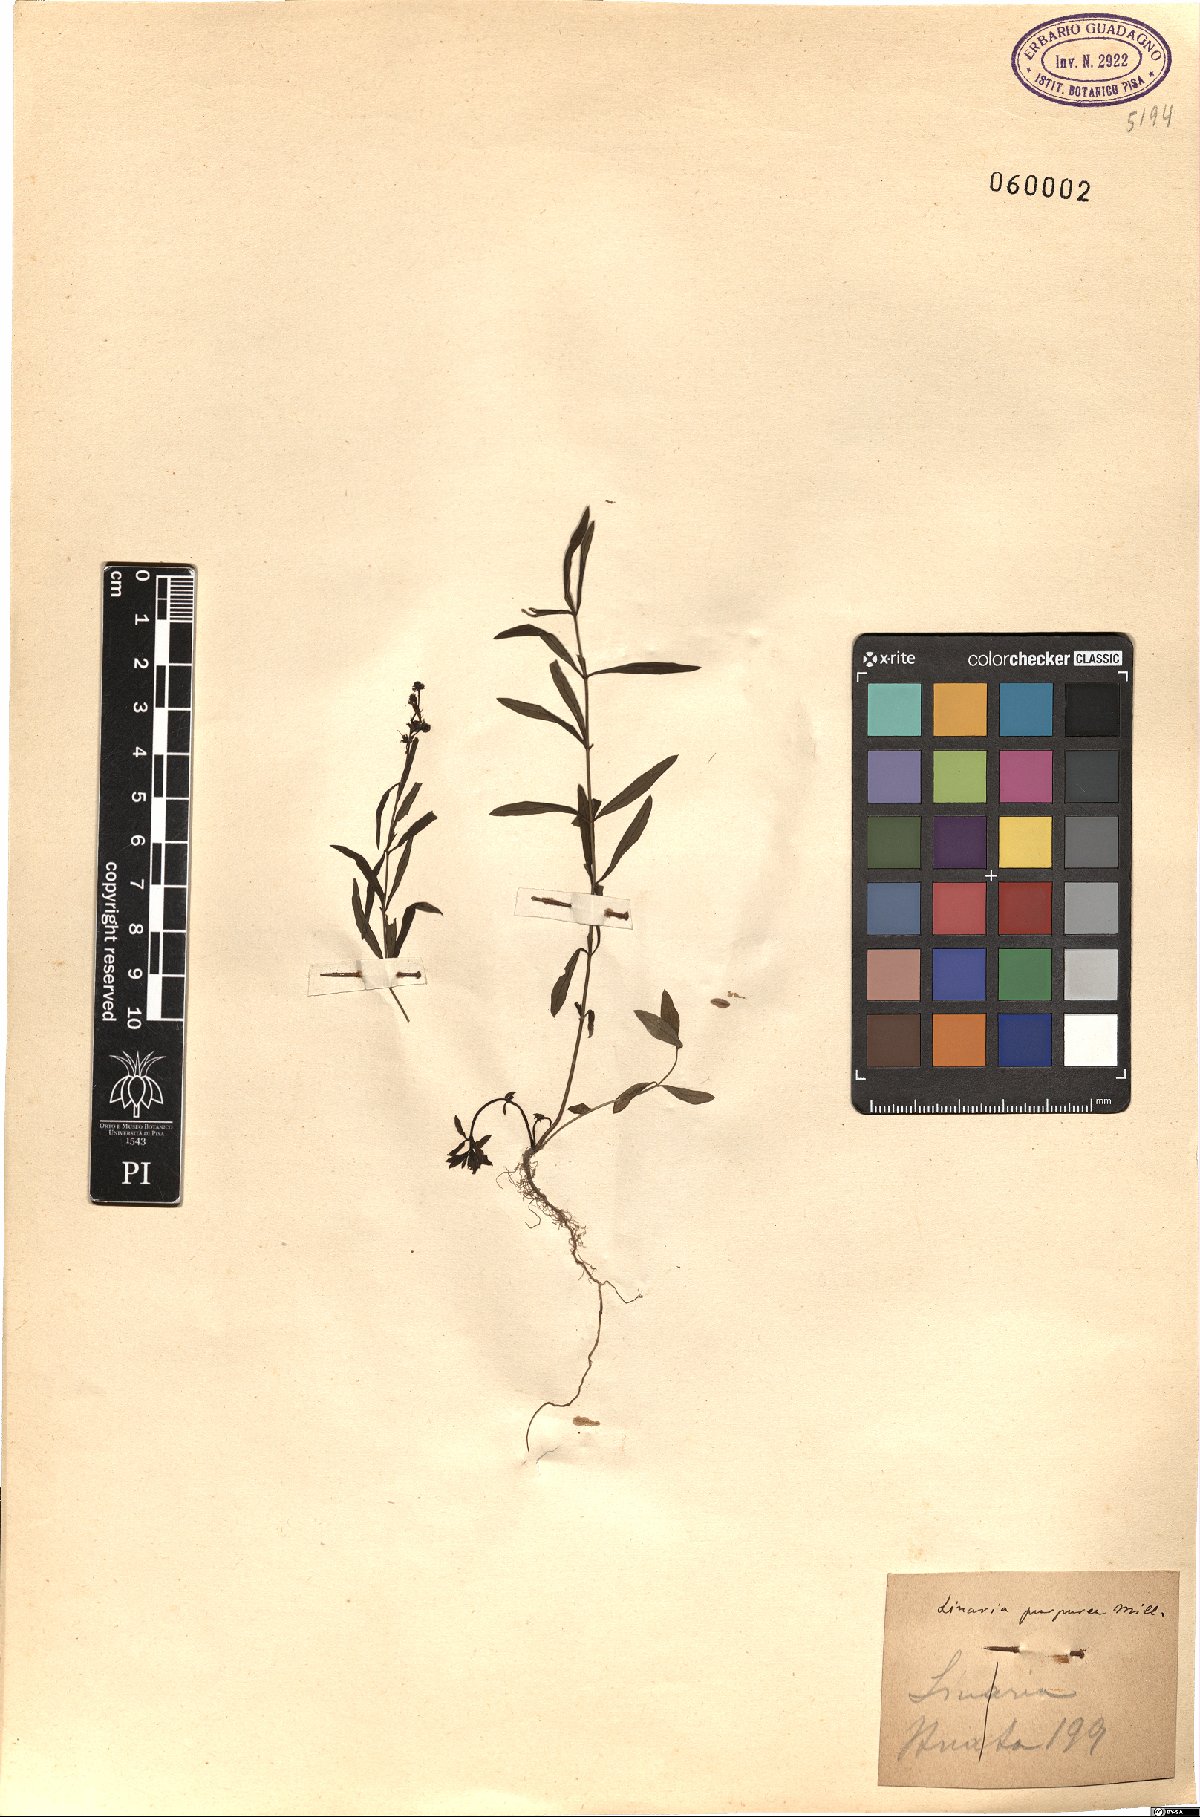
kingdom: Plantae
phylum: Tracheophyta
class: Magnoliopsida
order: Lamiales
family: Plantaginaceae
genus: Linaria
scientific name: Linaria purpurea
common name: Purple toadflax
